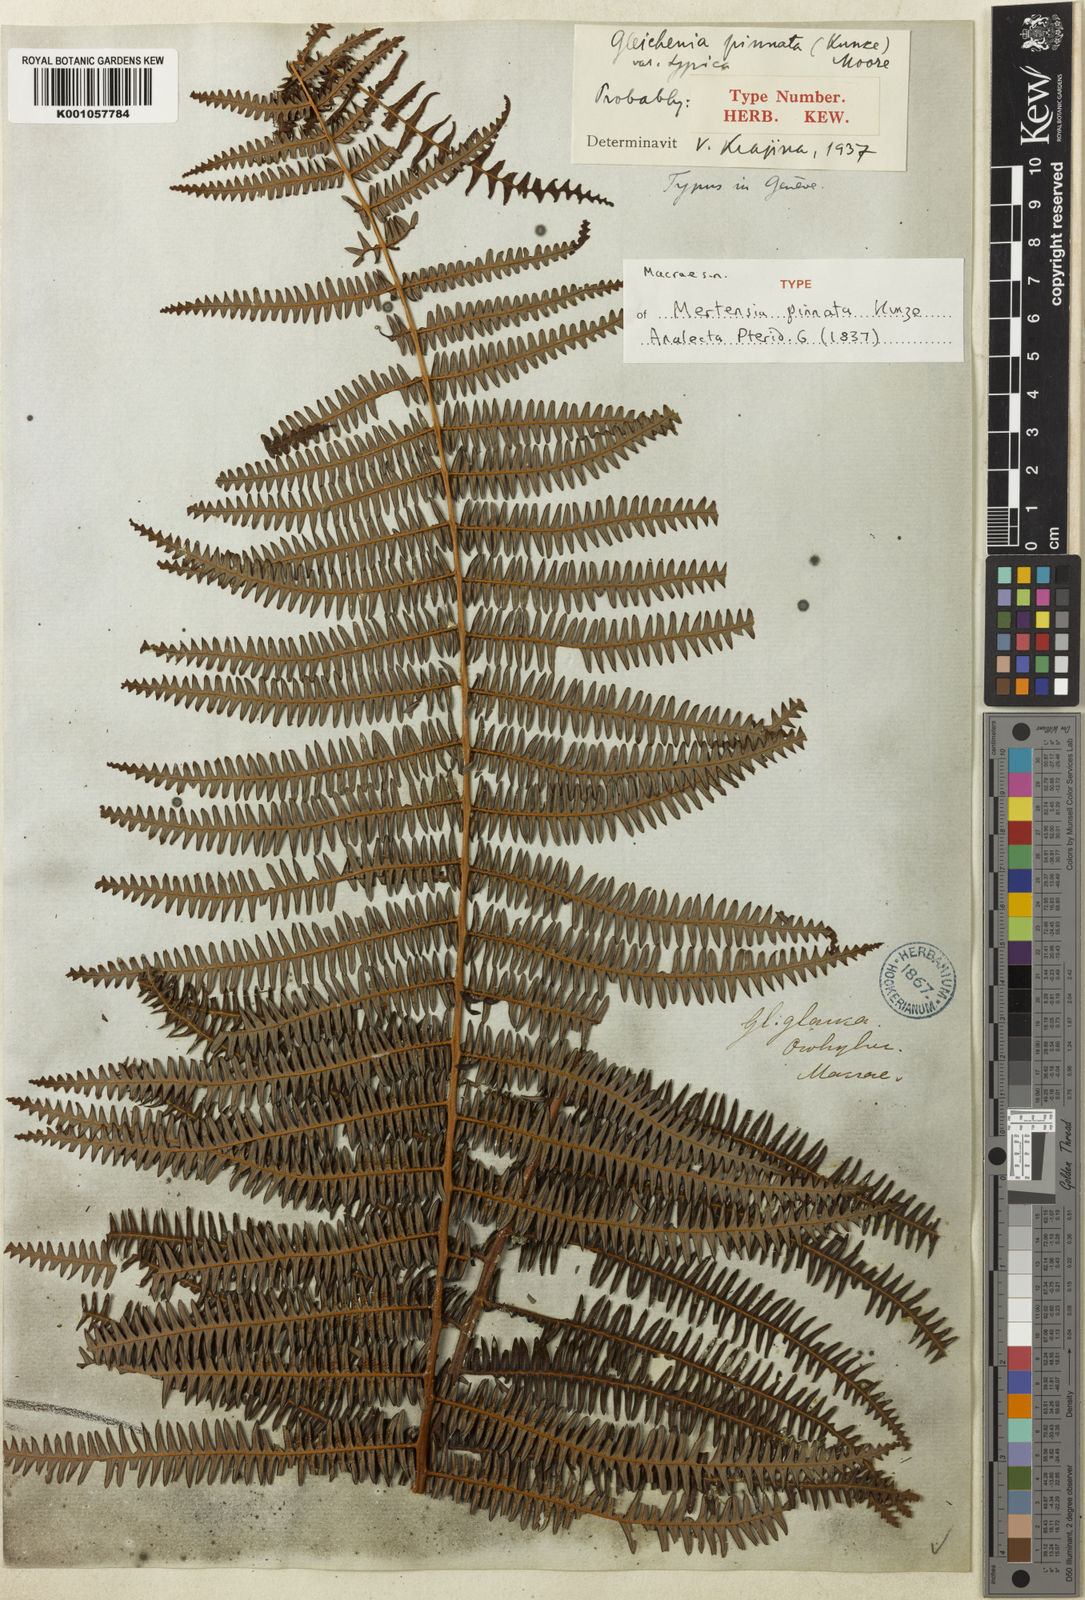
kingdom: Plantae
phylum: Tracheophyta
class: Polypodiopsida
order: Gleicheniales
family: Gleicheniaceae
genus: Diplopterygium
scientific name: Diplopterygium pinnatum
